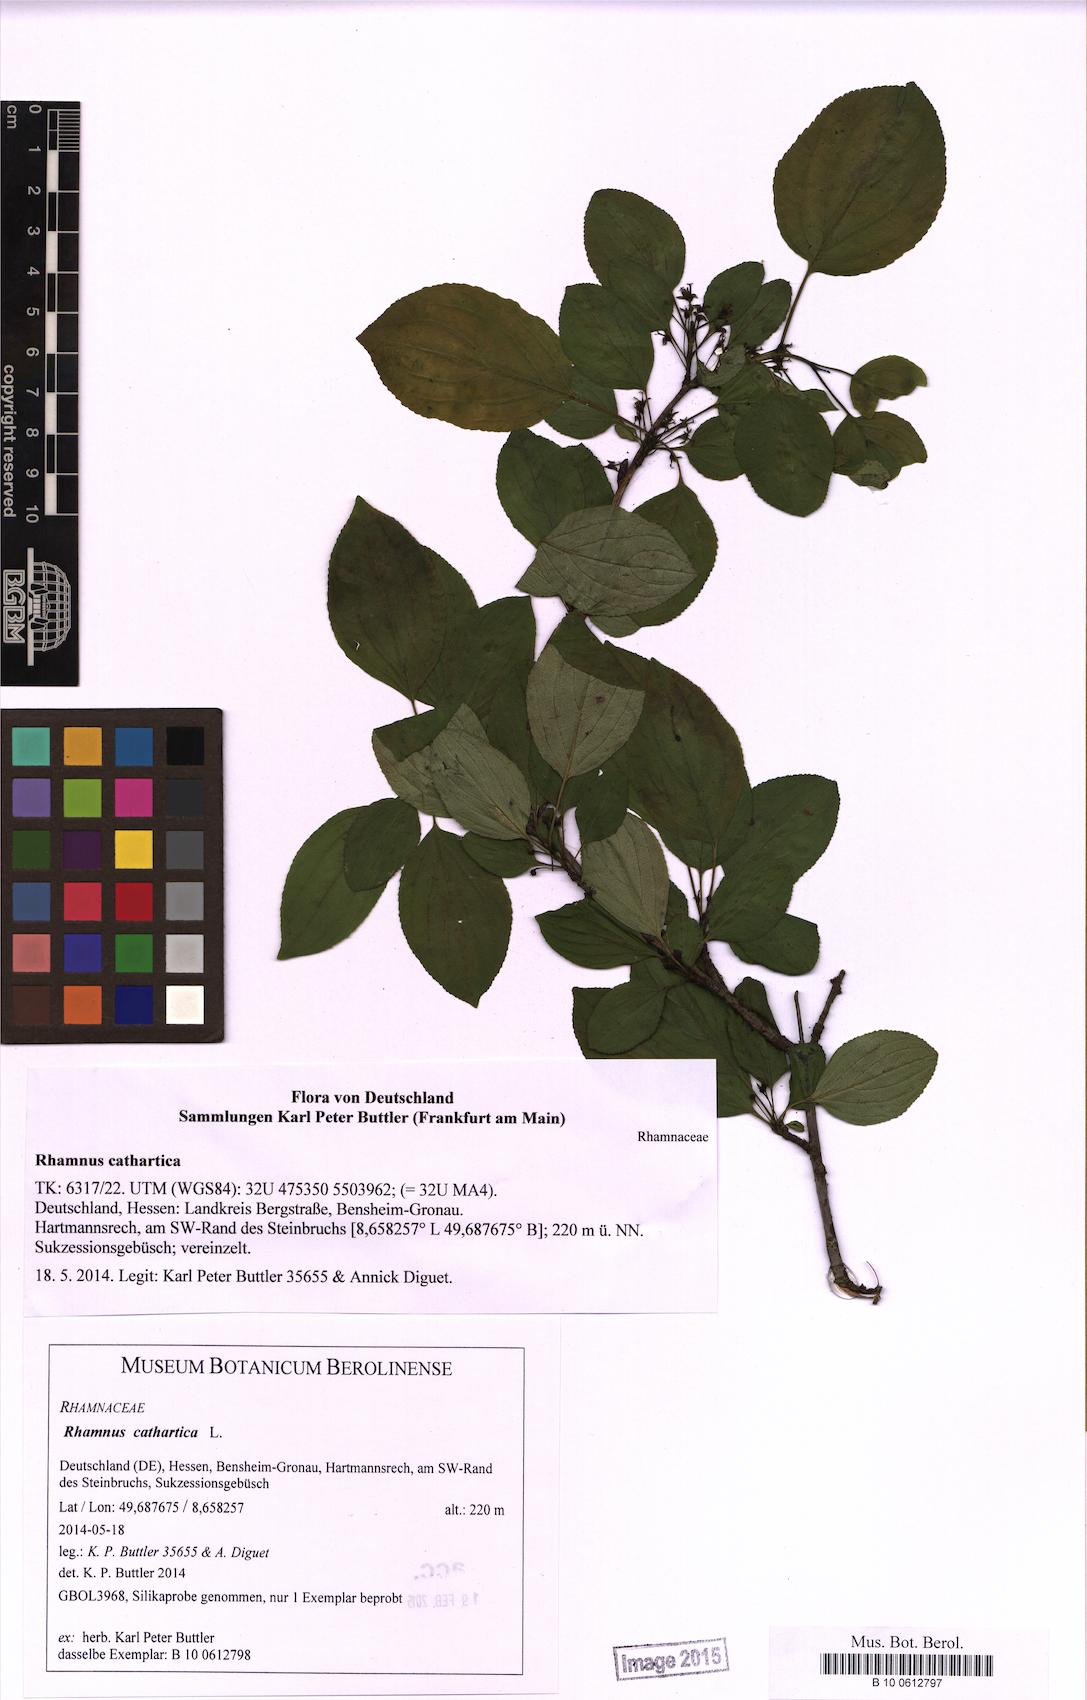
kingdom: Plantae
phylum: Tracheophyta
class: Magnoliopsida
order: Rosales
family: Rhamnaceae
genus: Rhamnus
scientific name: Rhamnus cathartica
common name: Common buckthorn
